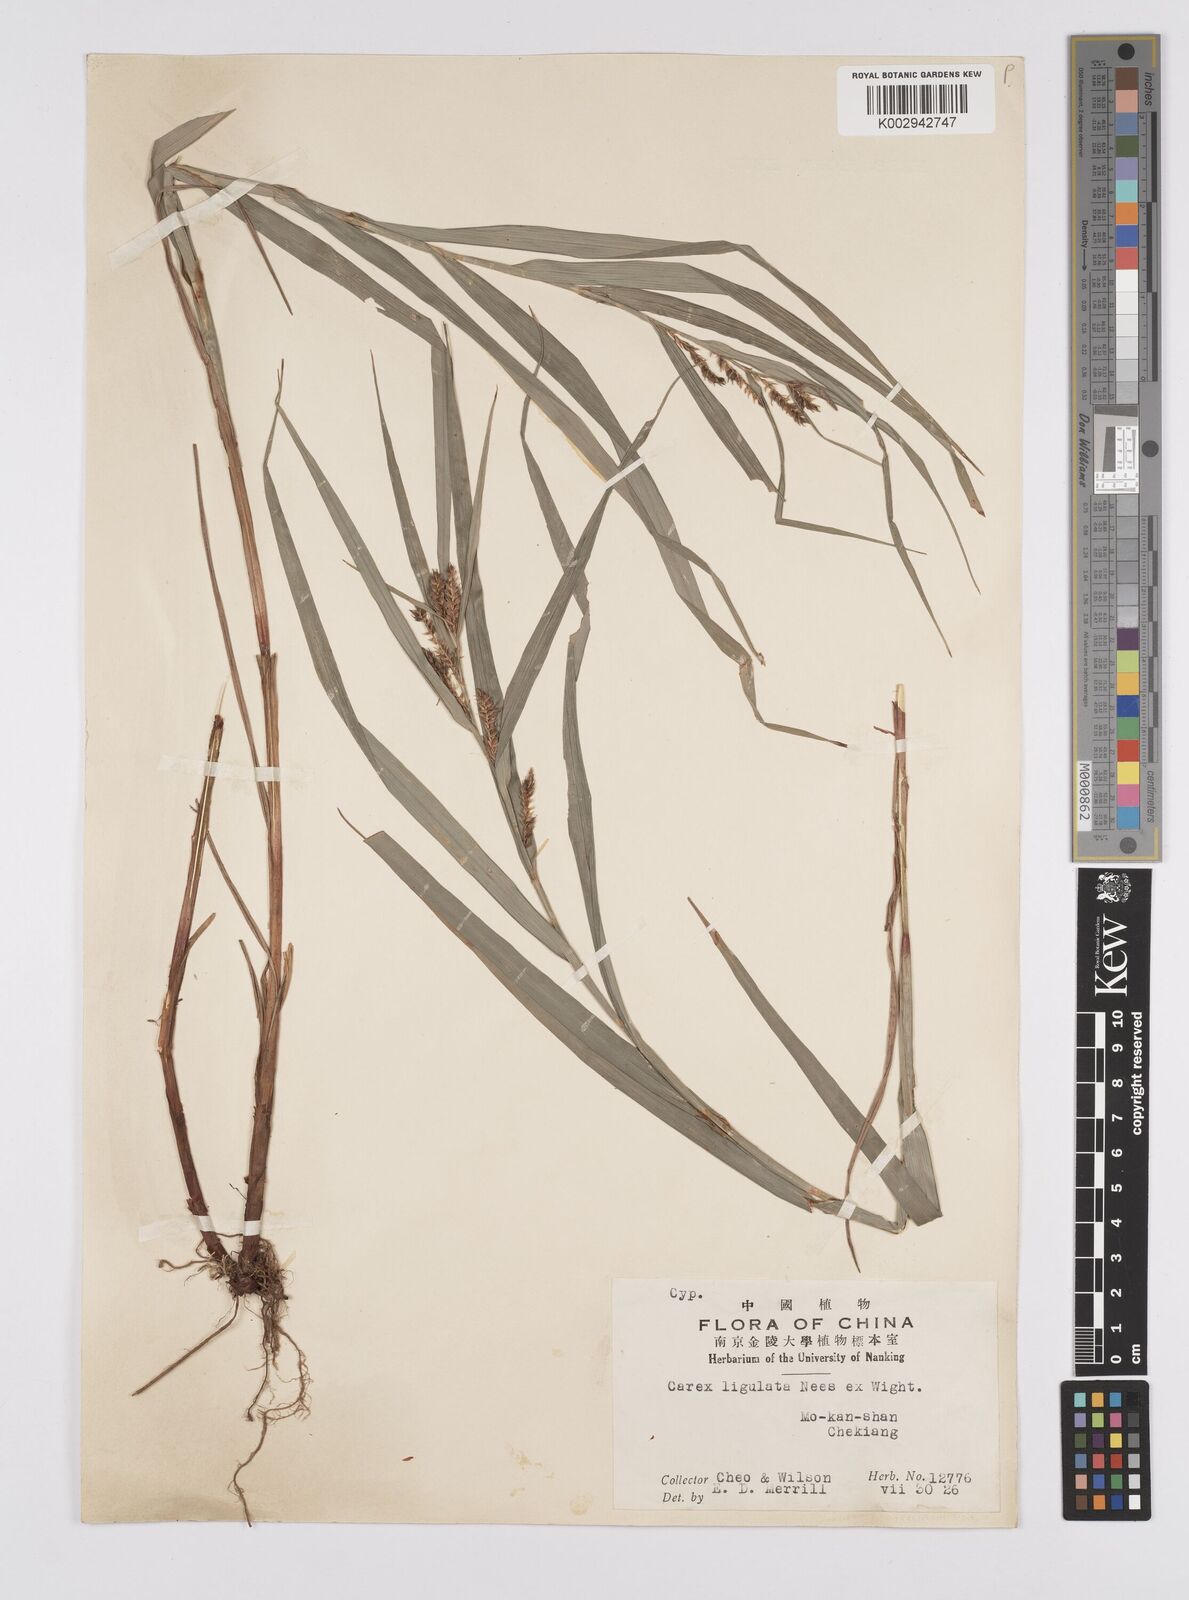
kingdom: Plantae
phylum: Tracheophyta
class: Liliopsida
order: Poales
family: Cyperaceae
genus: Carex
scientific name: Carex ligulata
